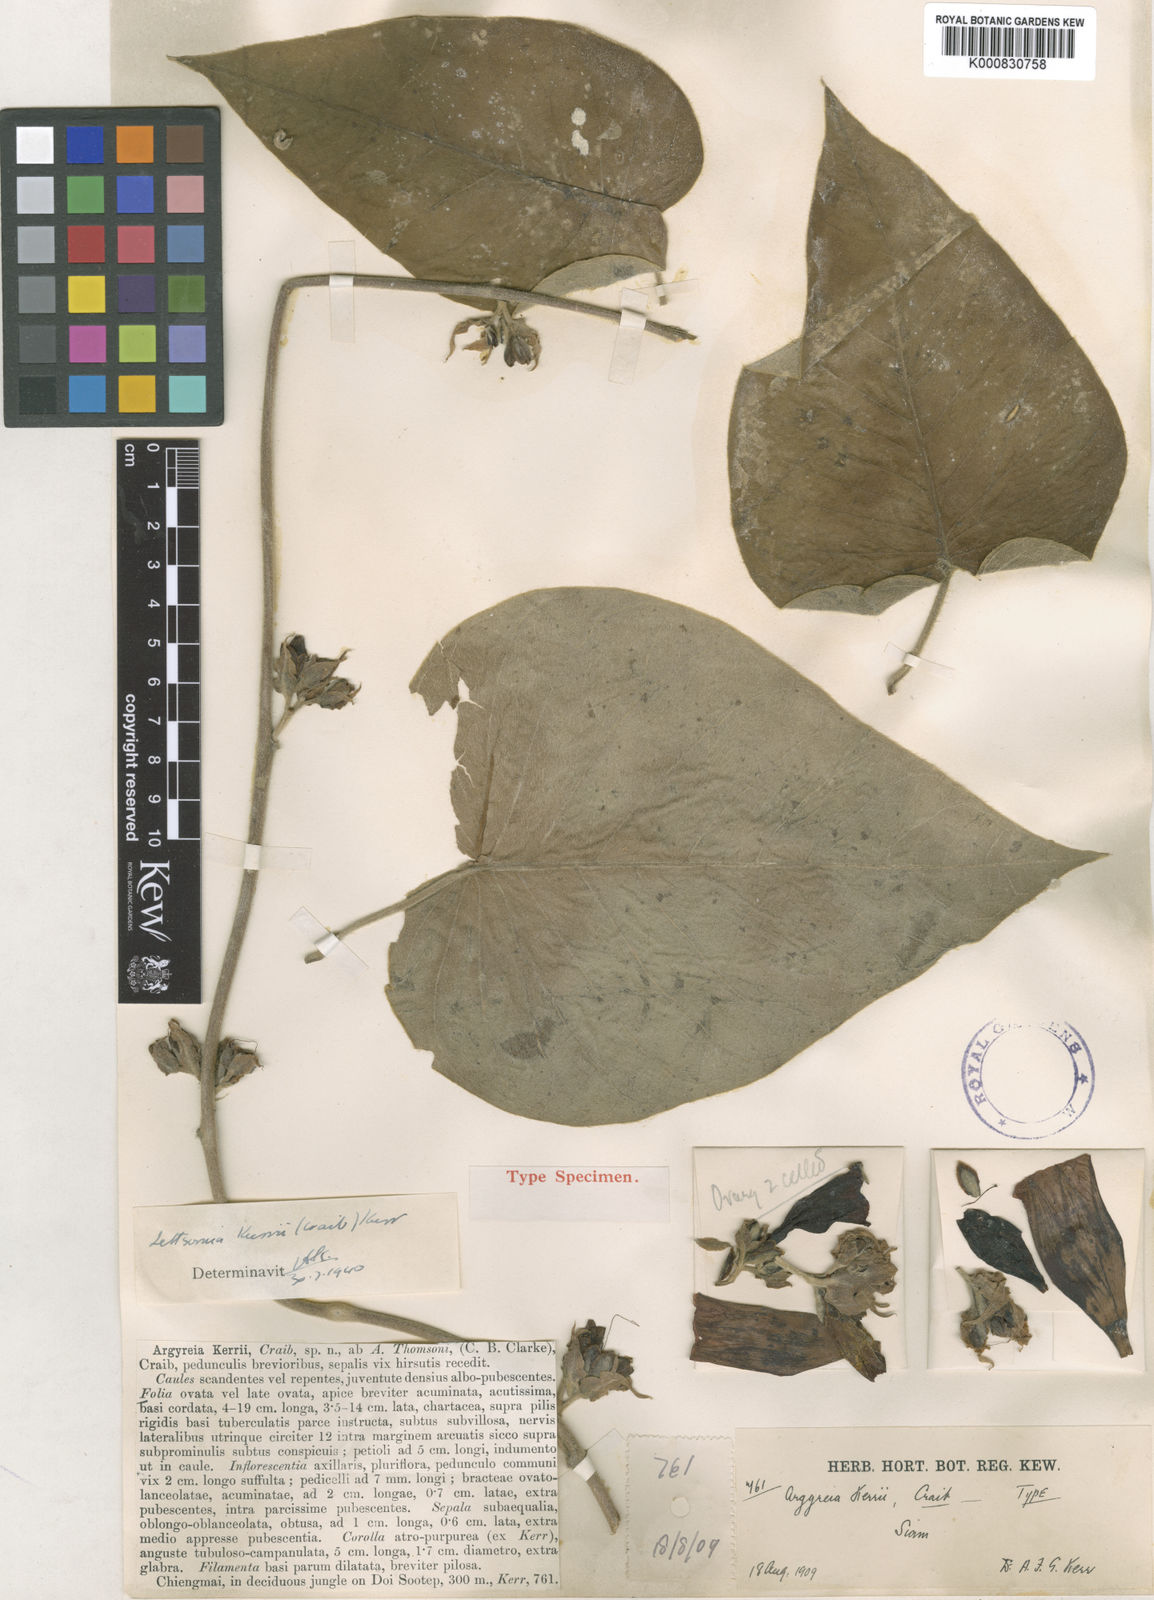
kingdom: Plantae
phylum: Tracheophyta
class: Magnoliopsida
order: Solanales
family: Convolvulaceae
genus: Argyreia
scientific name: Argyreia kerrii
